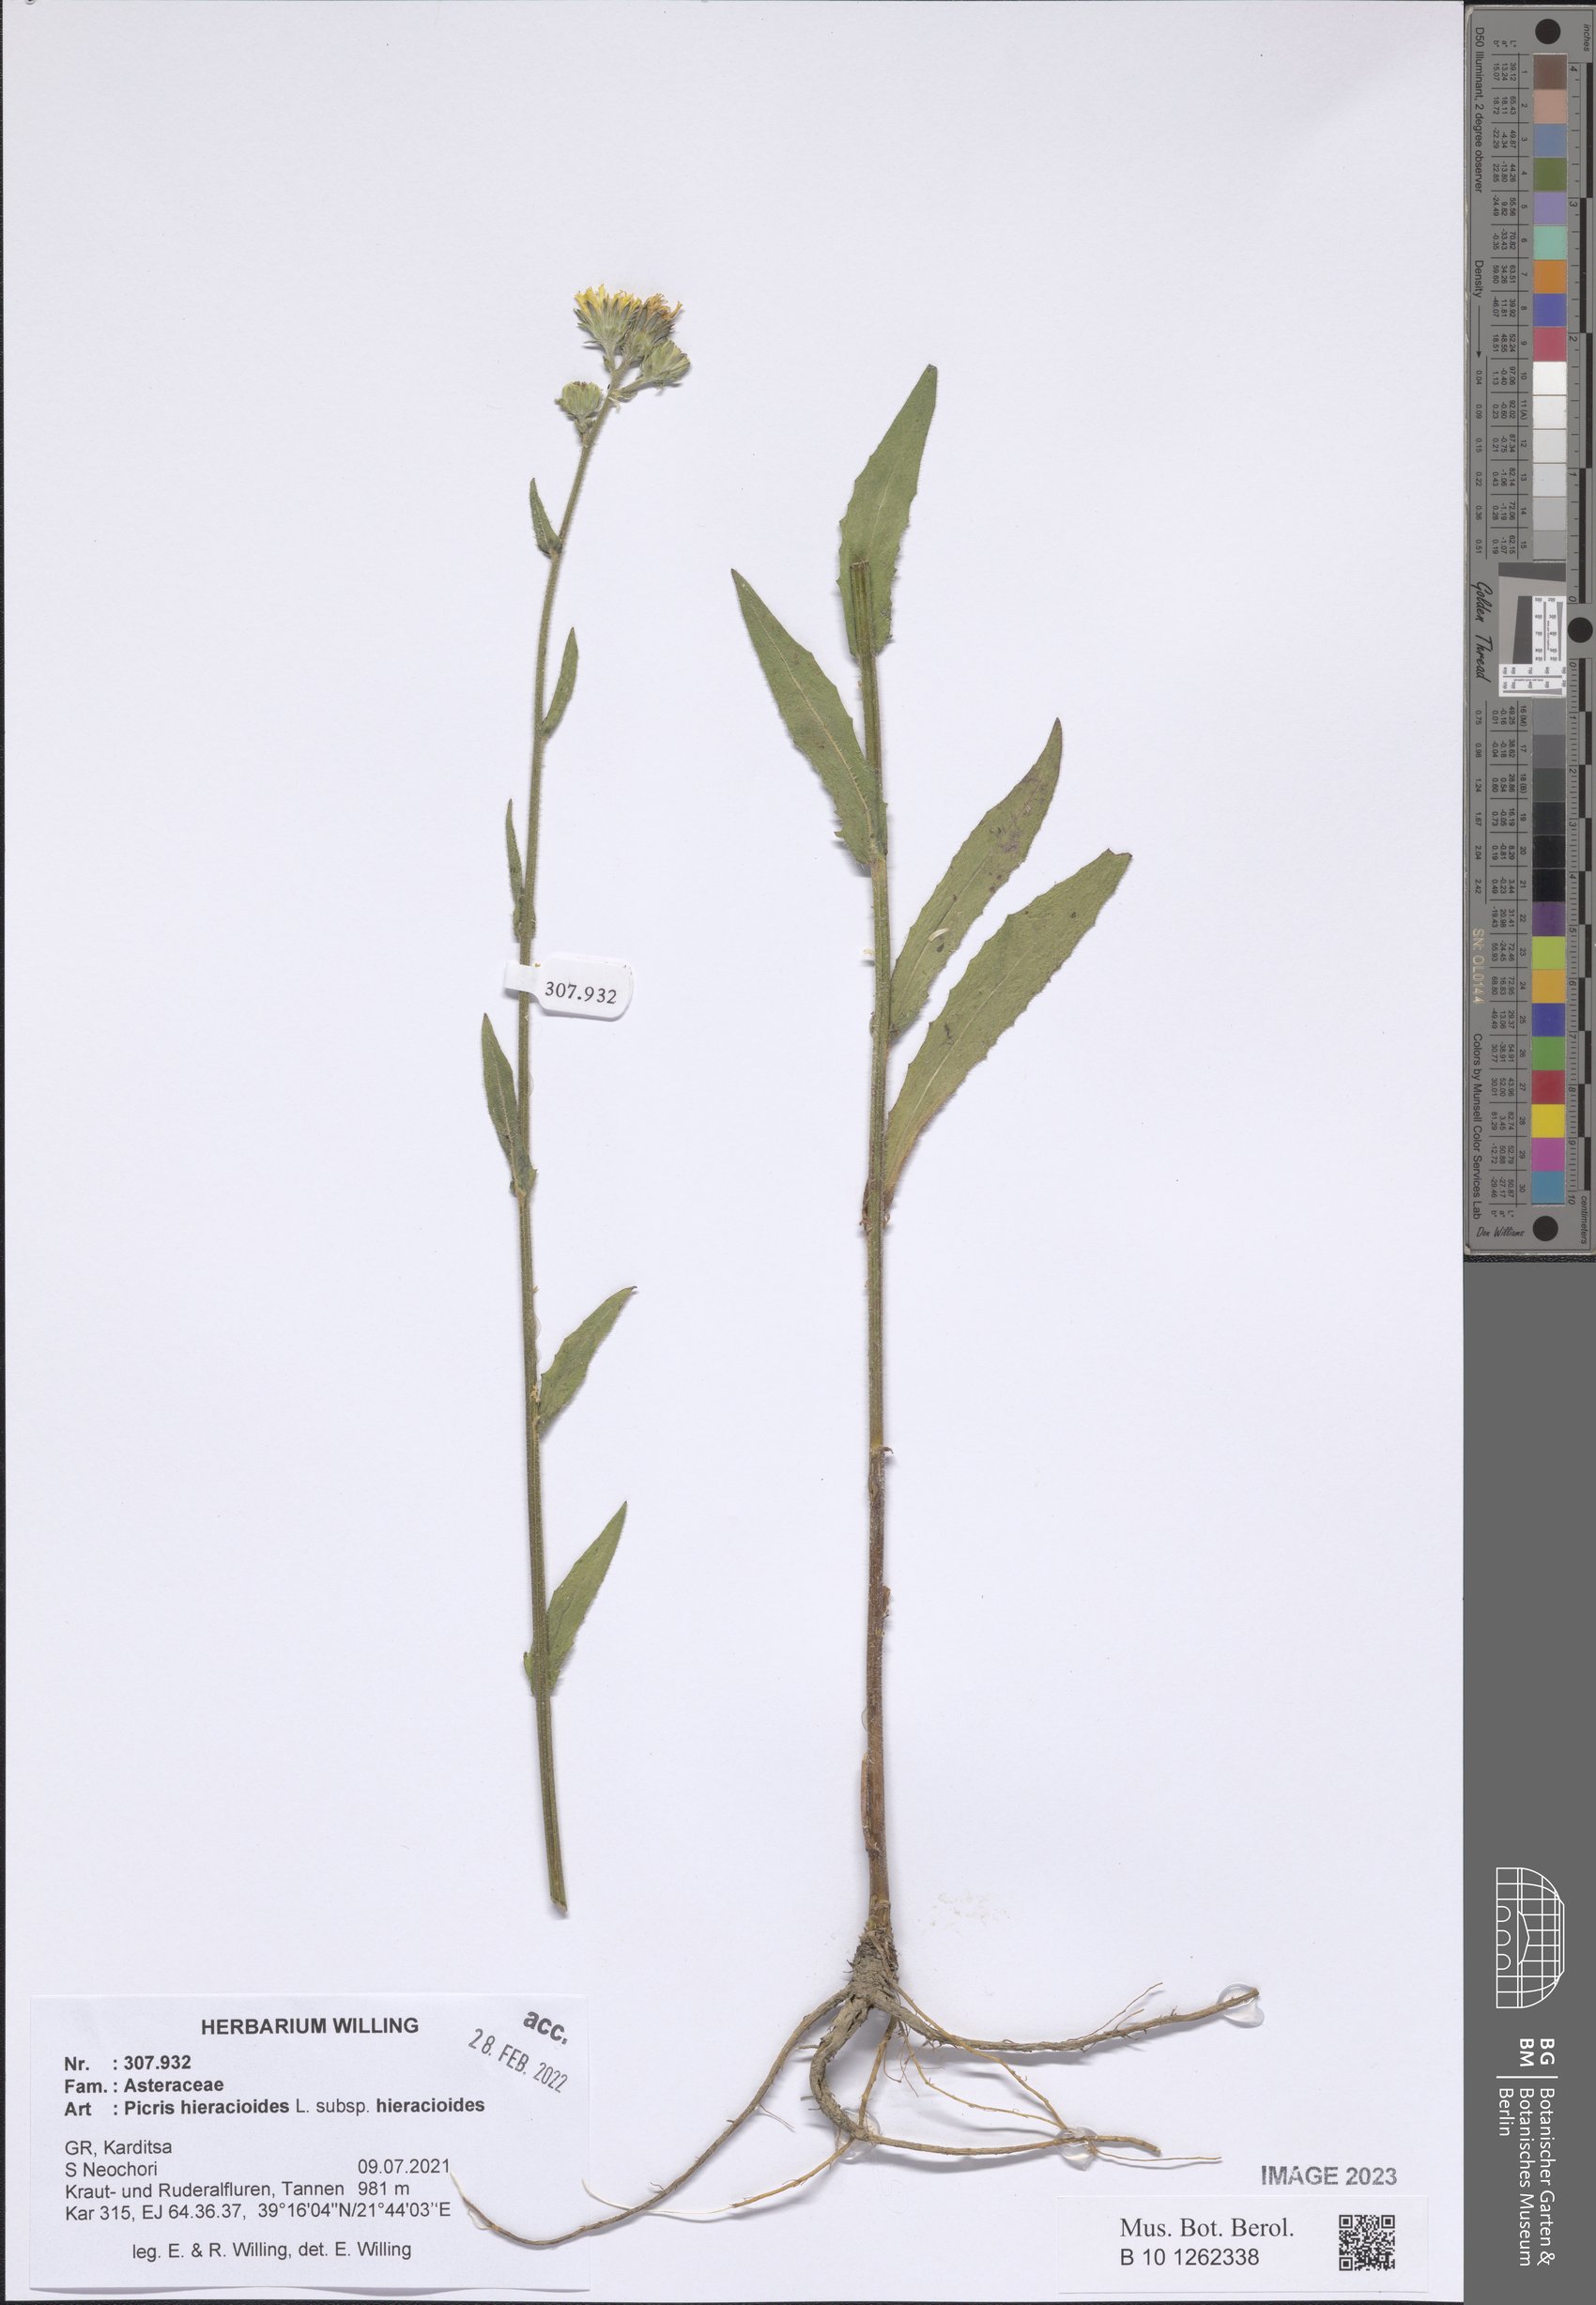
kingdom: Plantae
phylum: Tracheophyta
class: Magnoliopsida
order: Asterales
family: Asteraceae
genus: Picris
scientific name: Picris hieracioides
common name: Hawkweed oxtongue
